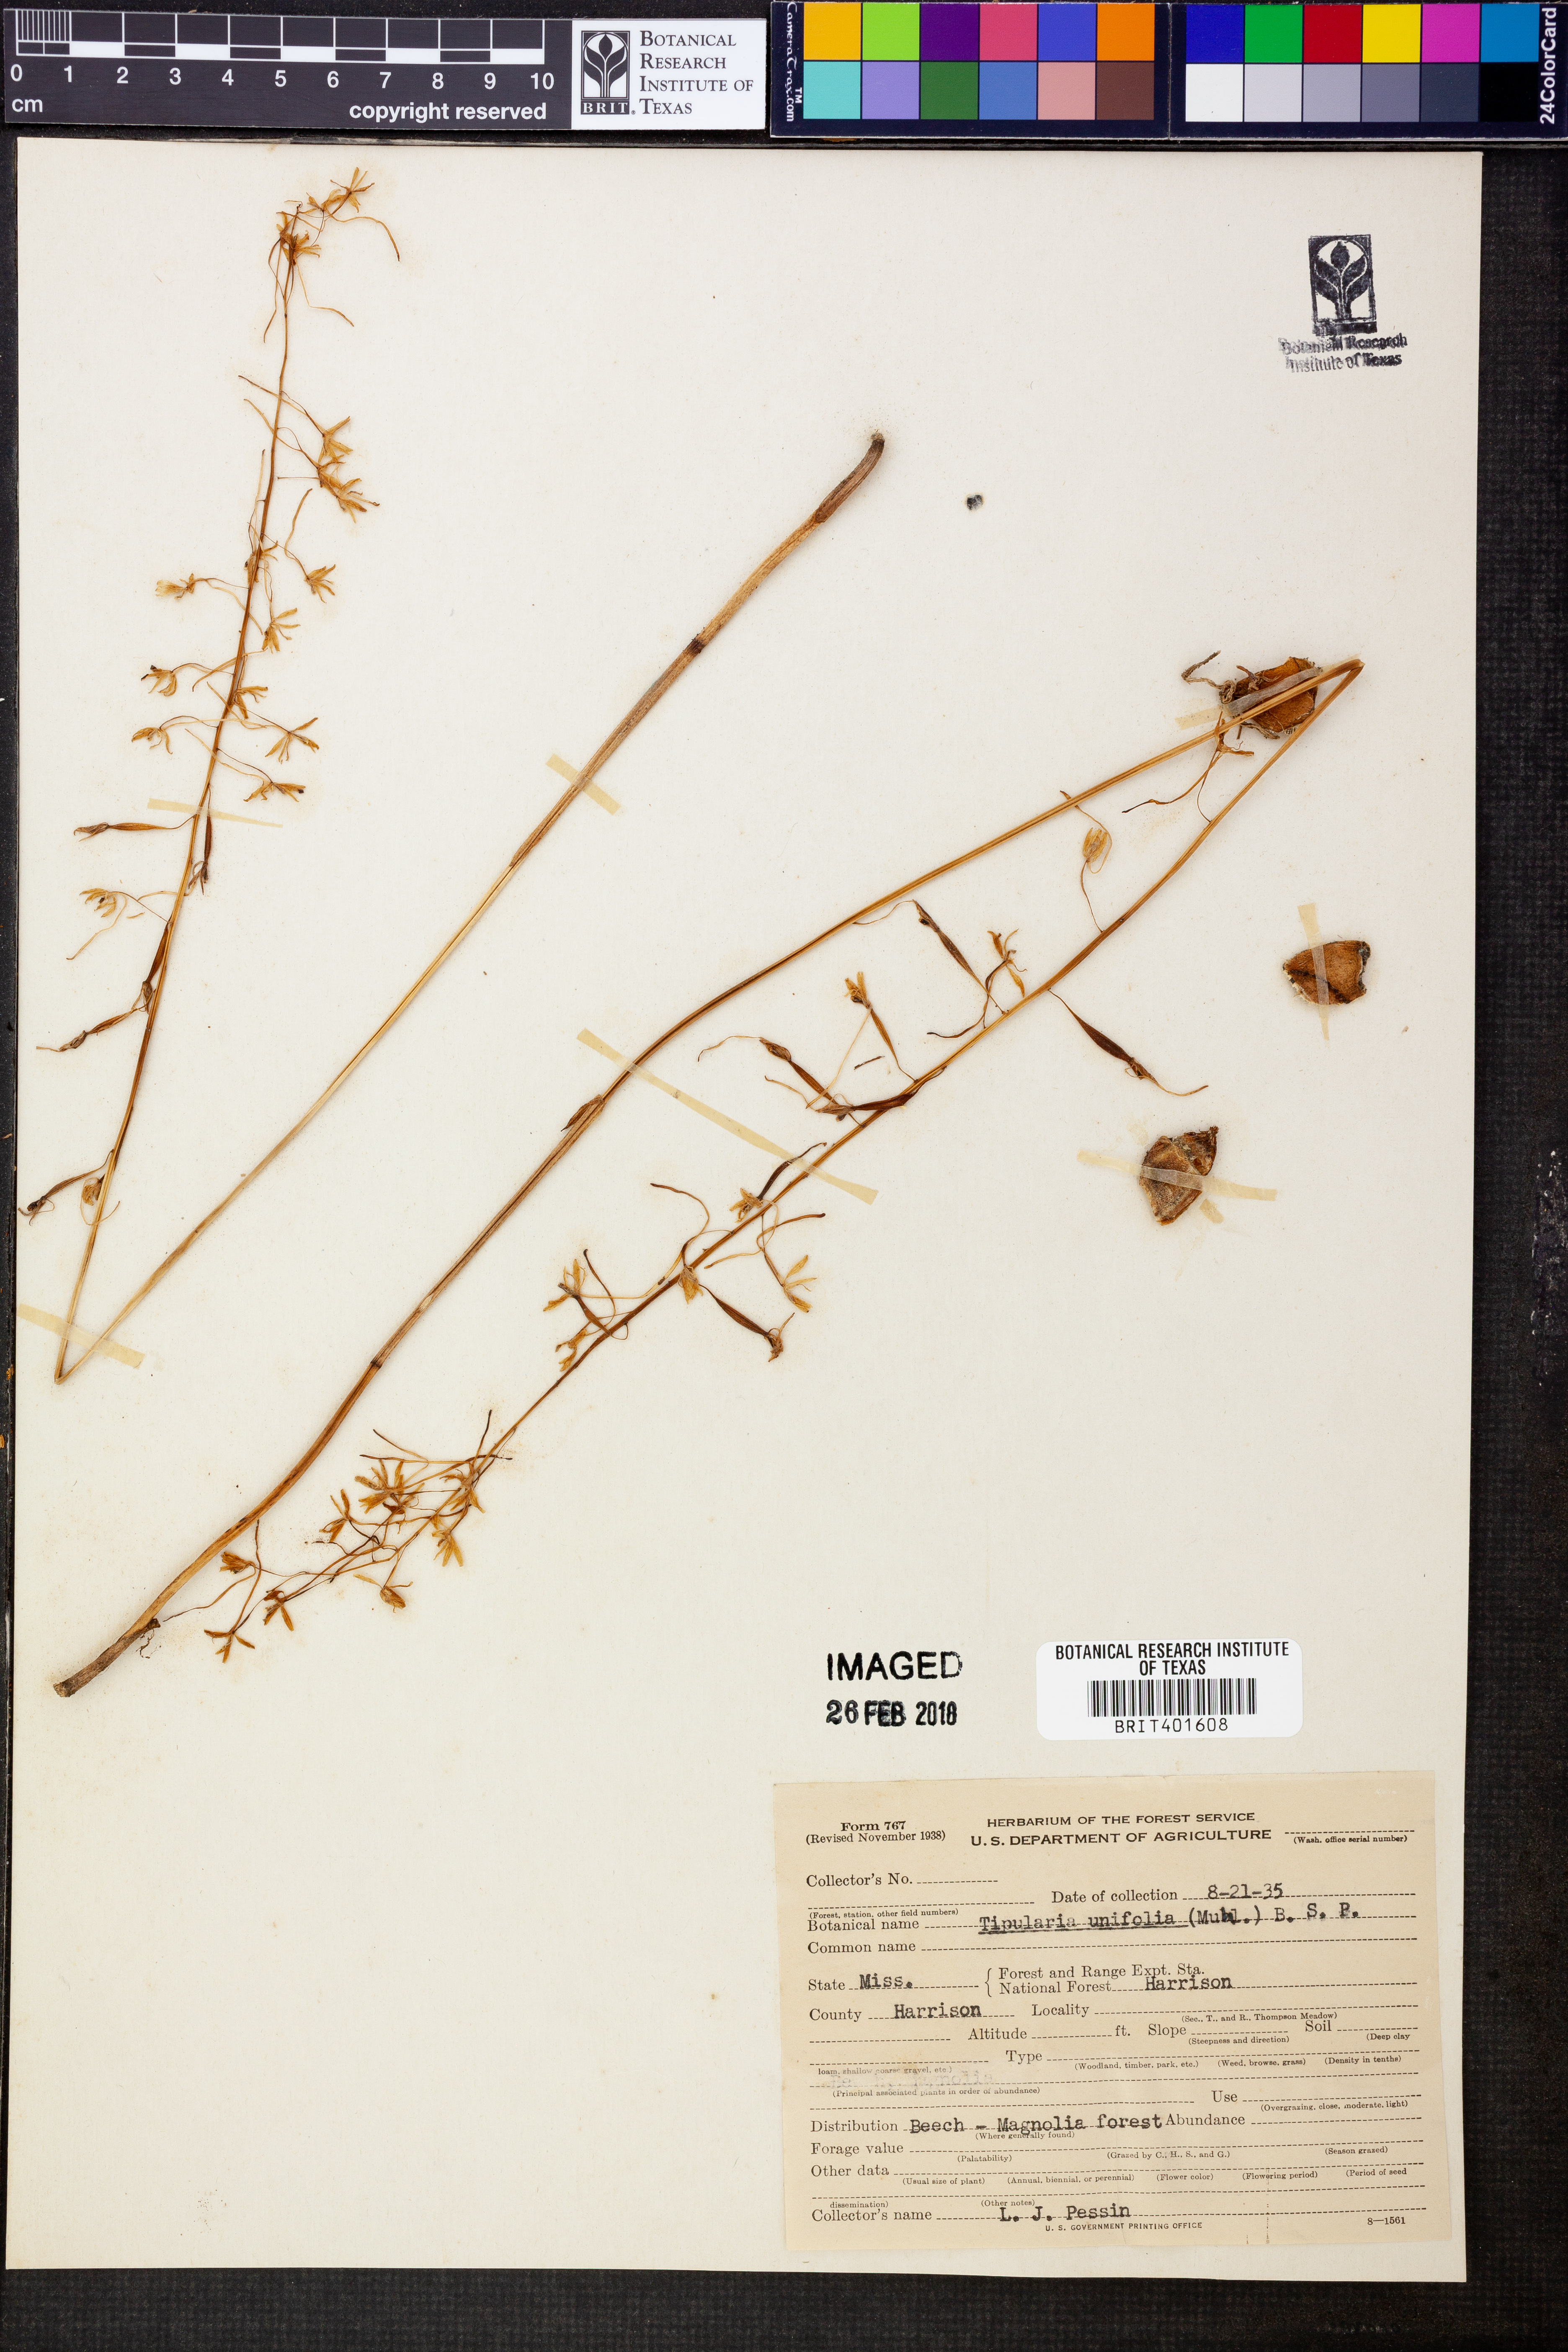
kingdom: Plantae
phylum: Tracheophyta
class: Liliopsida
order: Asparagales
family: Orchidaceae
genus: Tipularia
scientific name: Tipularia discolor
